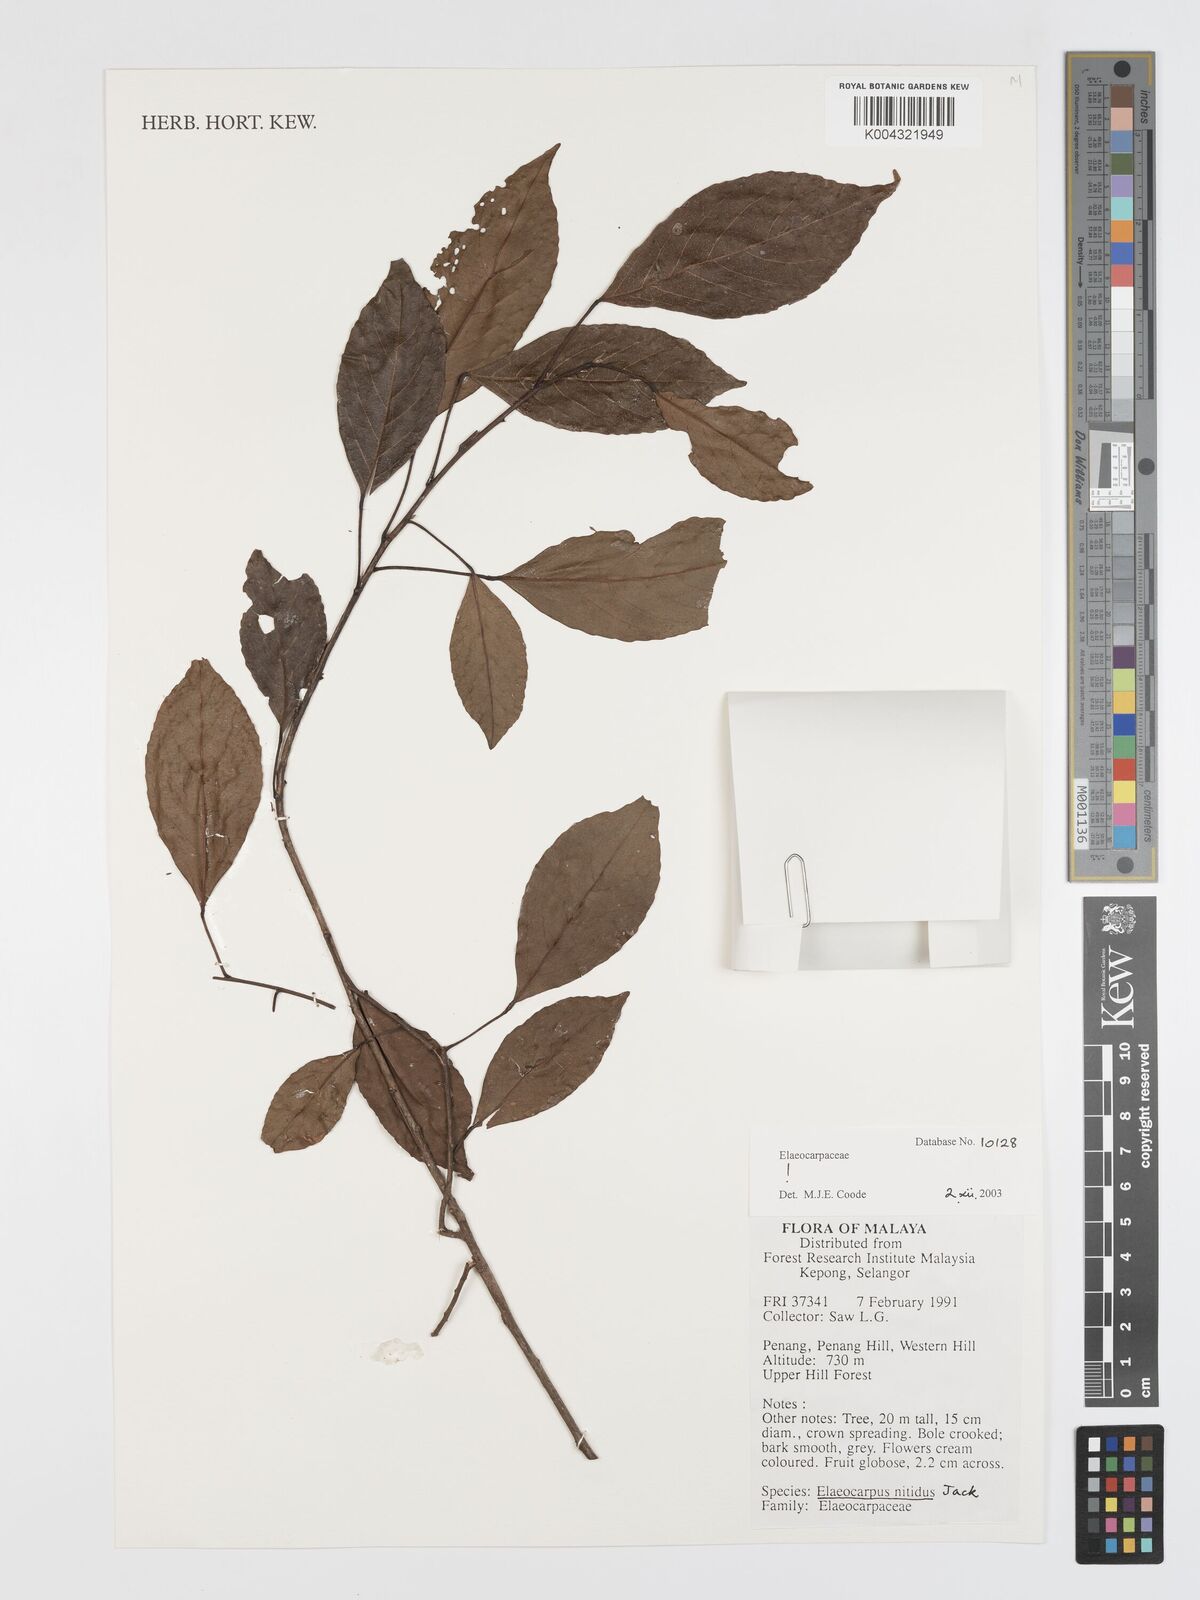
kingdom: Plantae
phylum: Tracheophyta
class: Magnoliopsida
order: Oxalidales
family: Elaeocarpaceae
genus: Elaeocarpus
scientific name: Elaeocarpus nitidus
